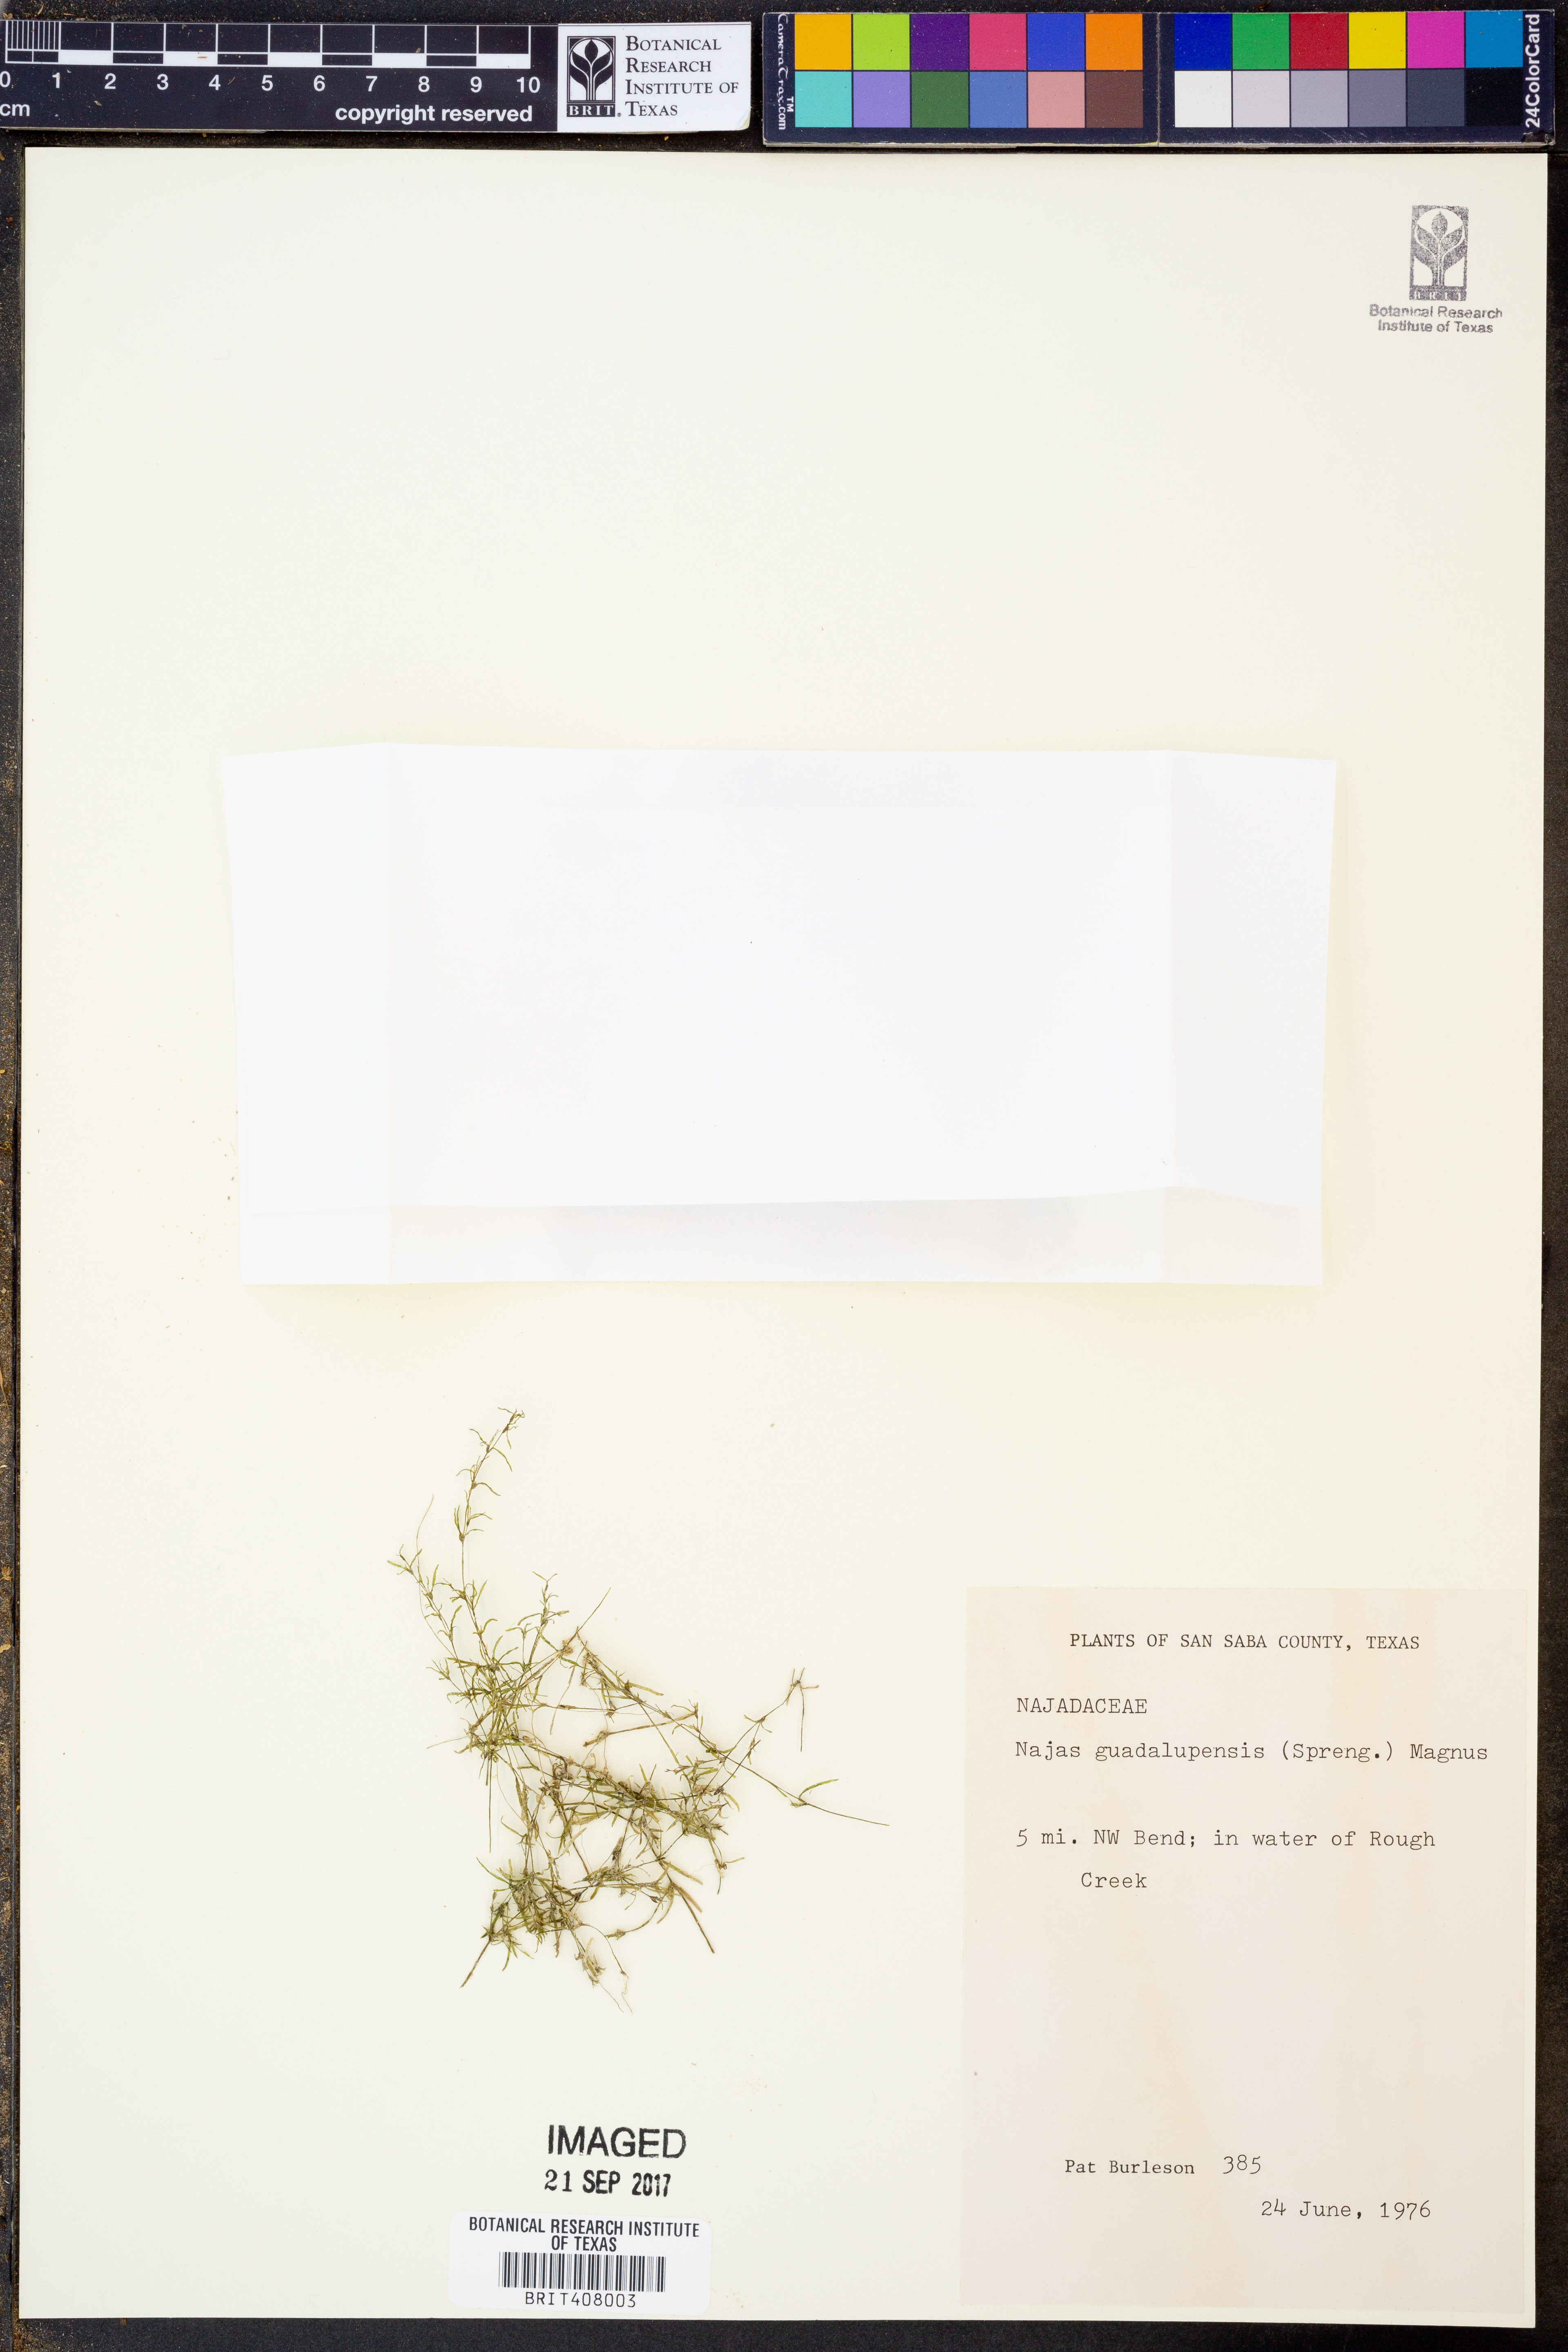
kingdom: Plantae
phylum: Tracheophyta
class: Liliopsida
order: Alismatales
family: Hydrocharitaceae
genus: Najas
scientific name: Najas guadalupensis
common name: Southern naiad
